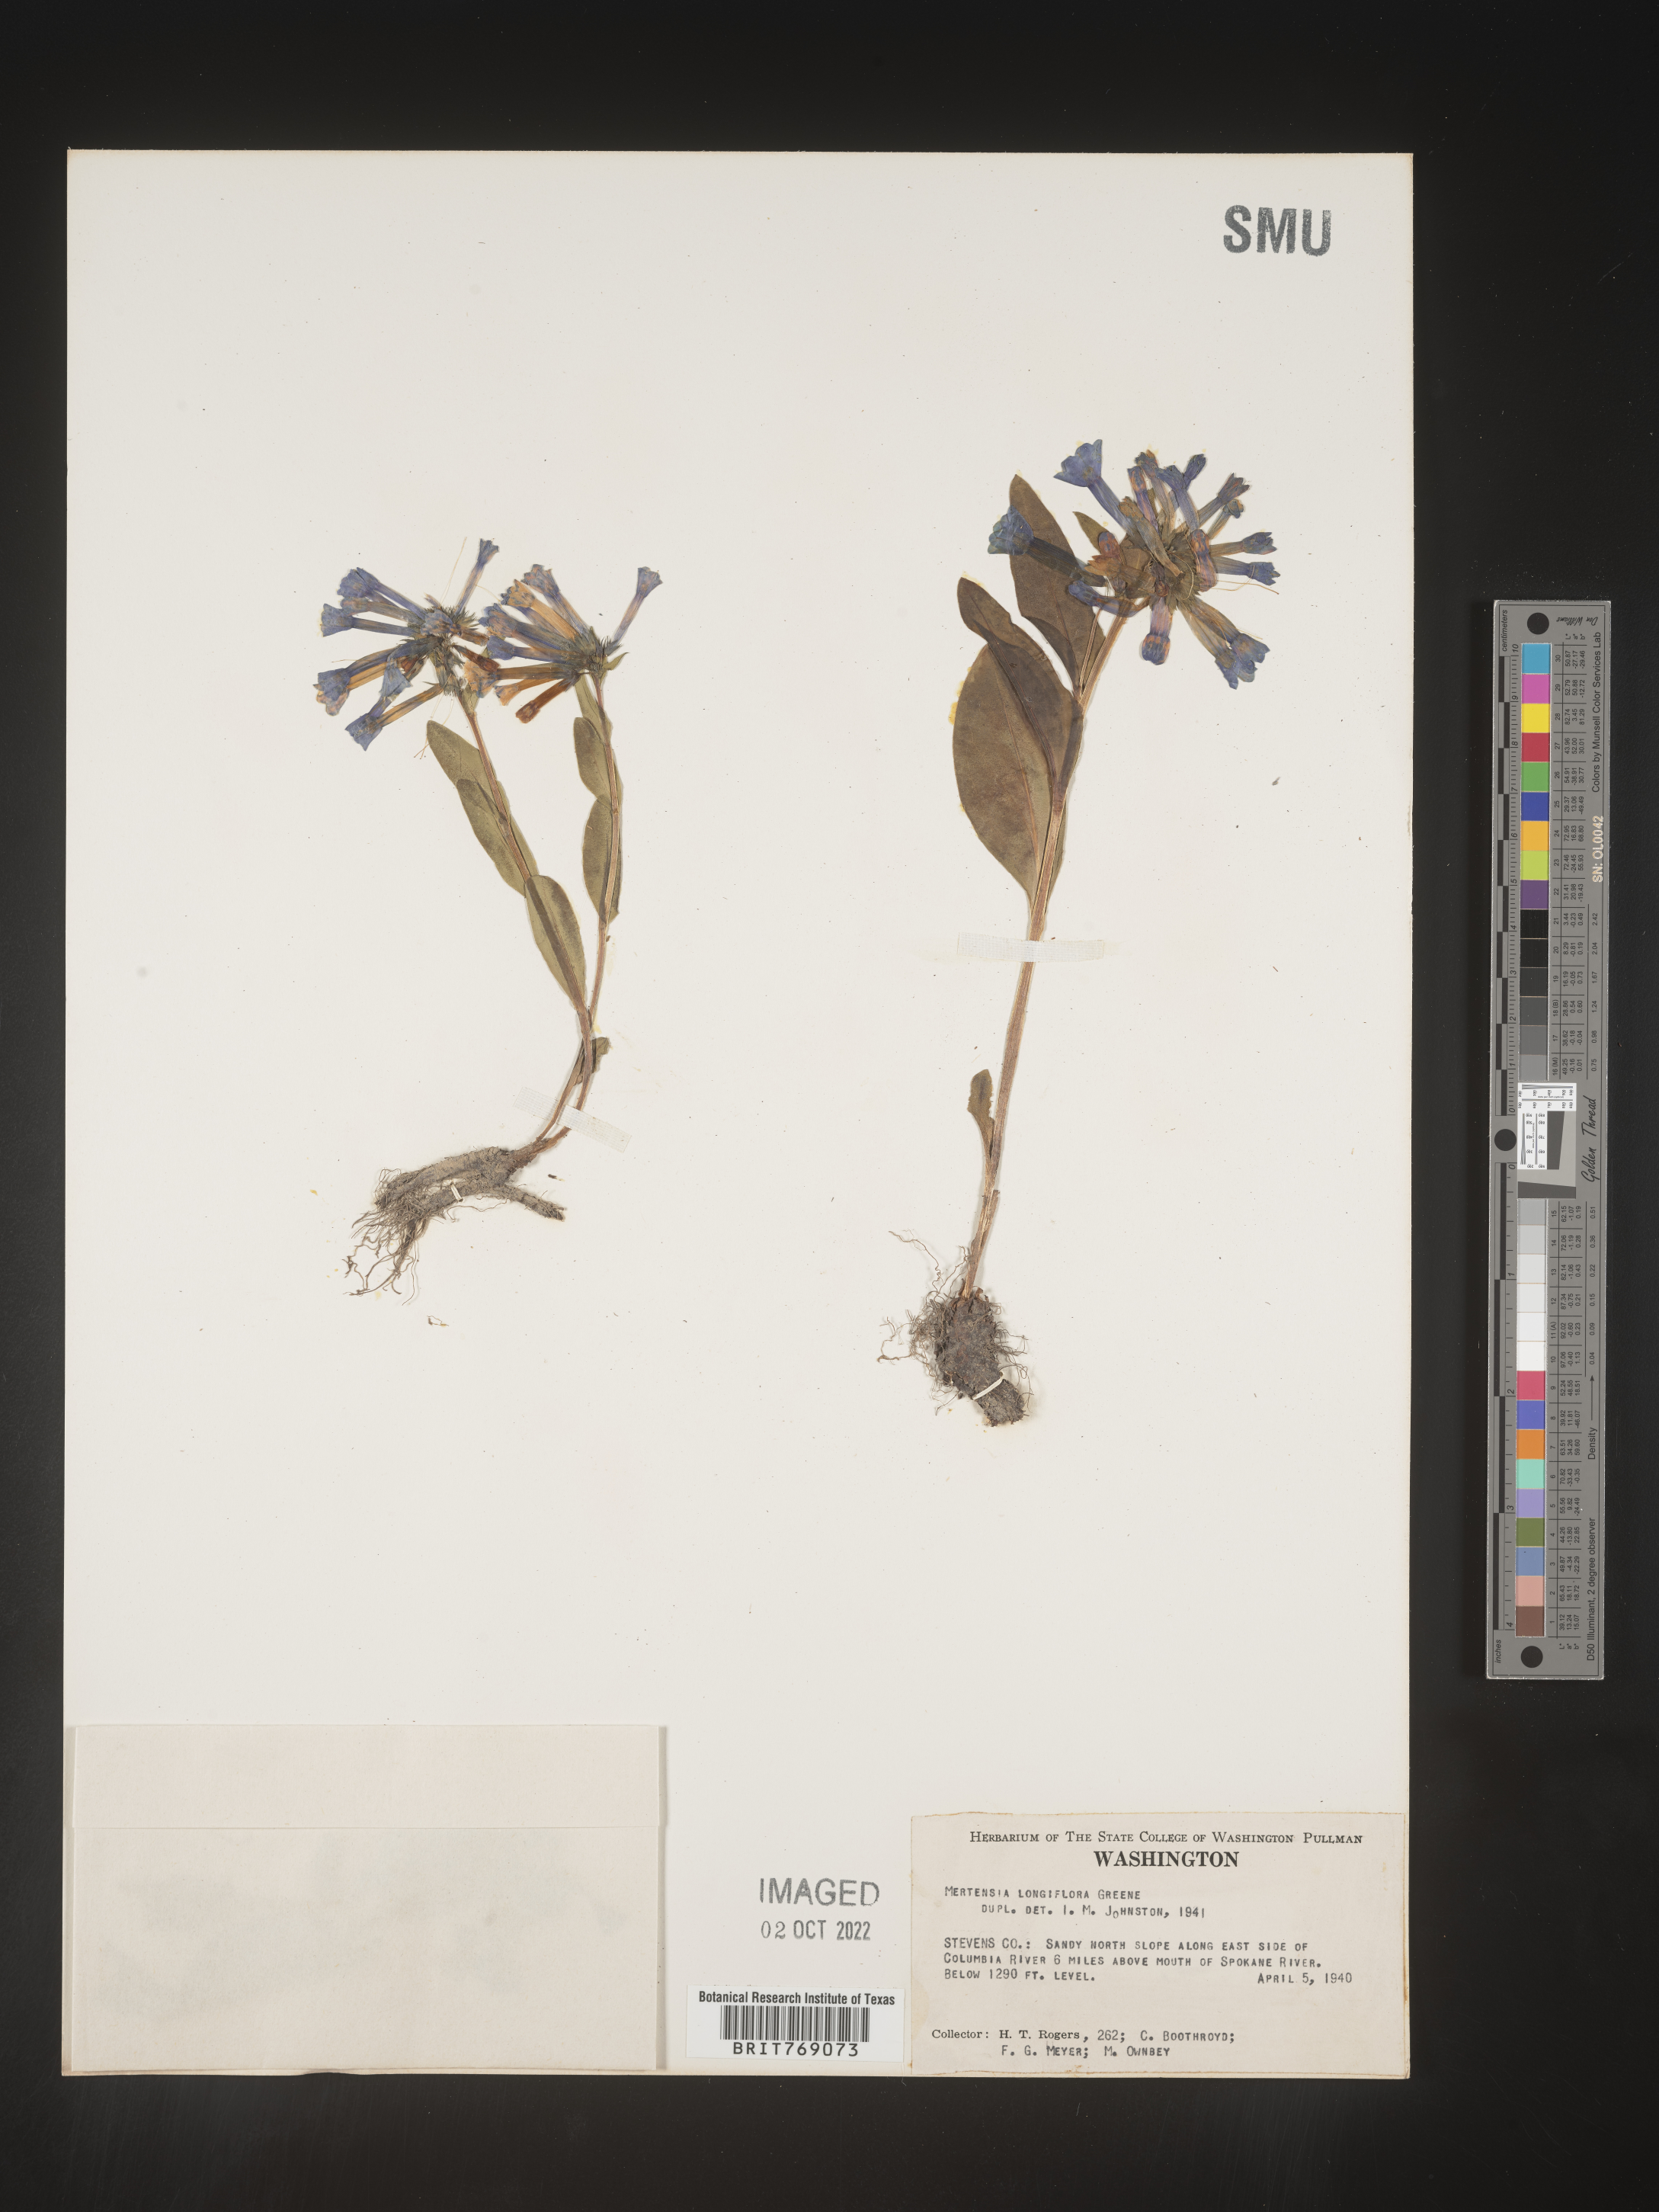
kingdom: Plantae
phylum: Tracheophyta
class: Magnoliopsida
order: Boraginales
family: Boraginaceae
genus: Mertensia
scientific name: Mertensia
